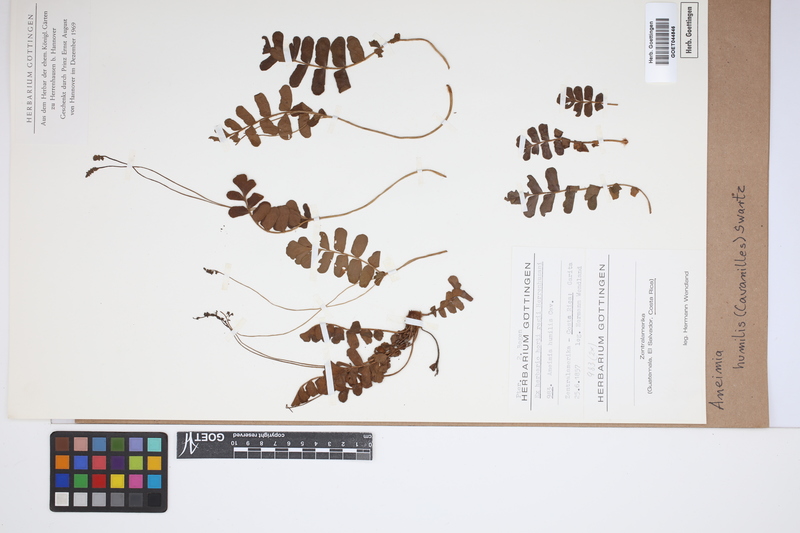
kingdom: Plantae
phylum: Tracheophyta
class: Polypodiopsida
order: Schizaeales
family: Anemiaceae
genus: Anemia
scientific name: Anemia humilis
